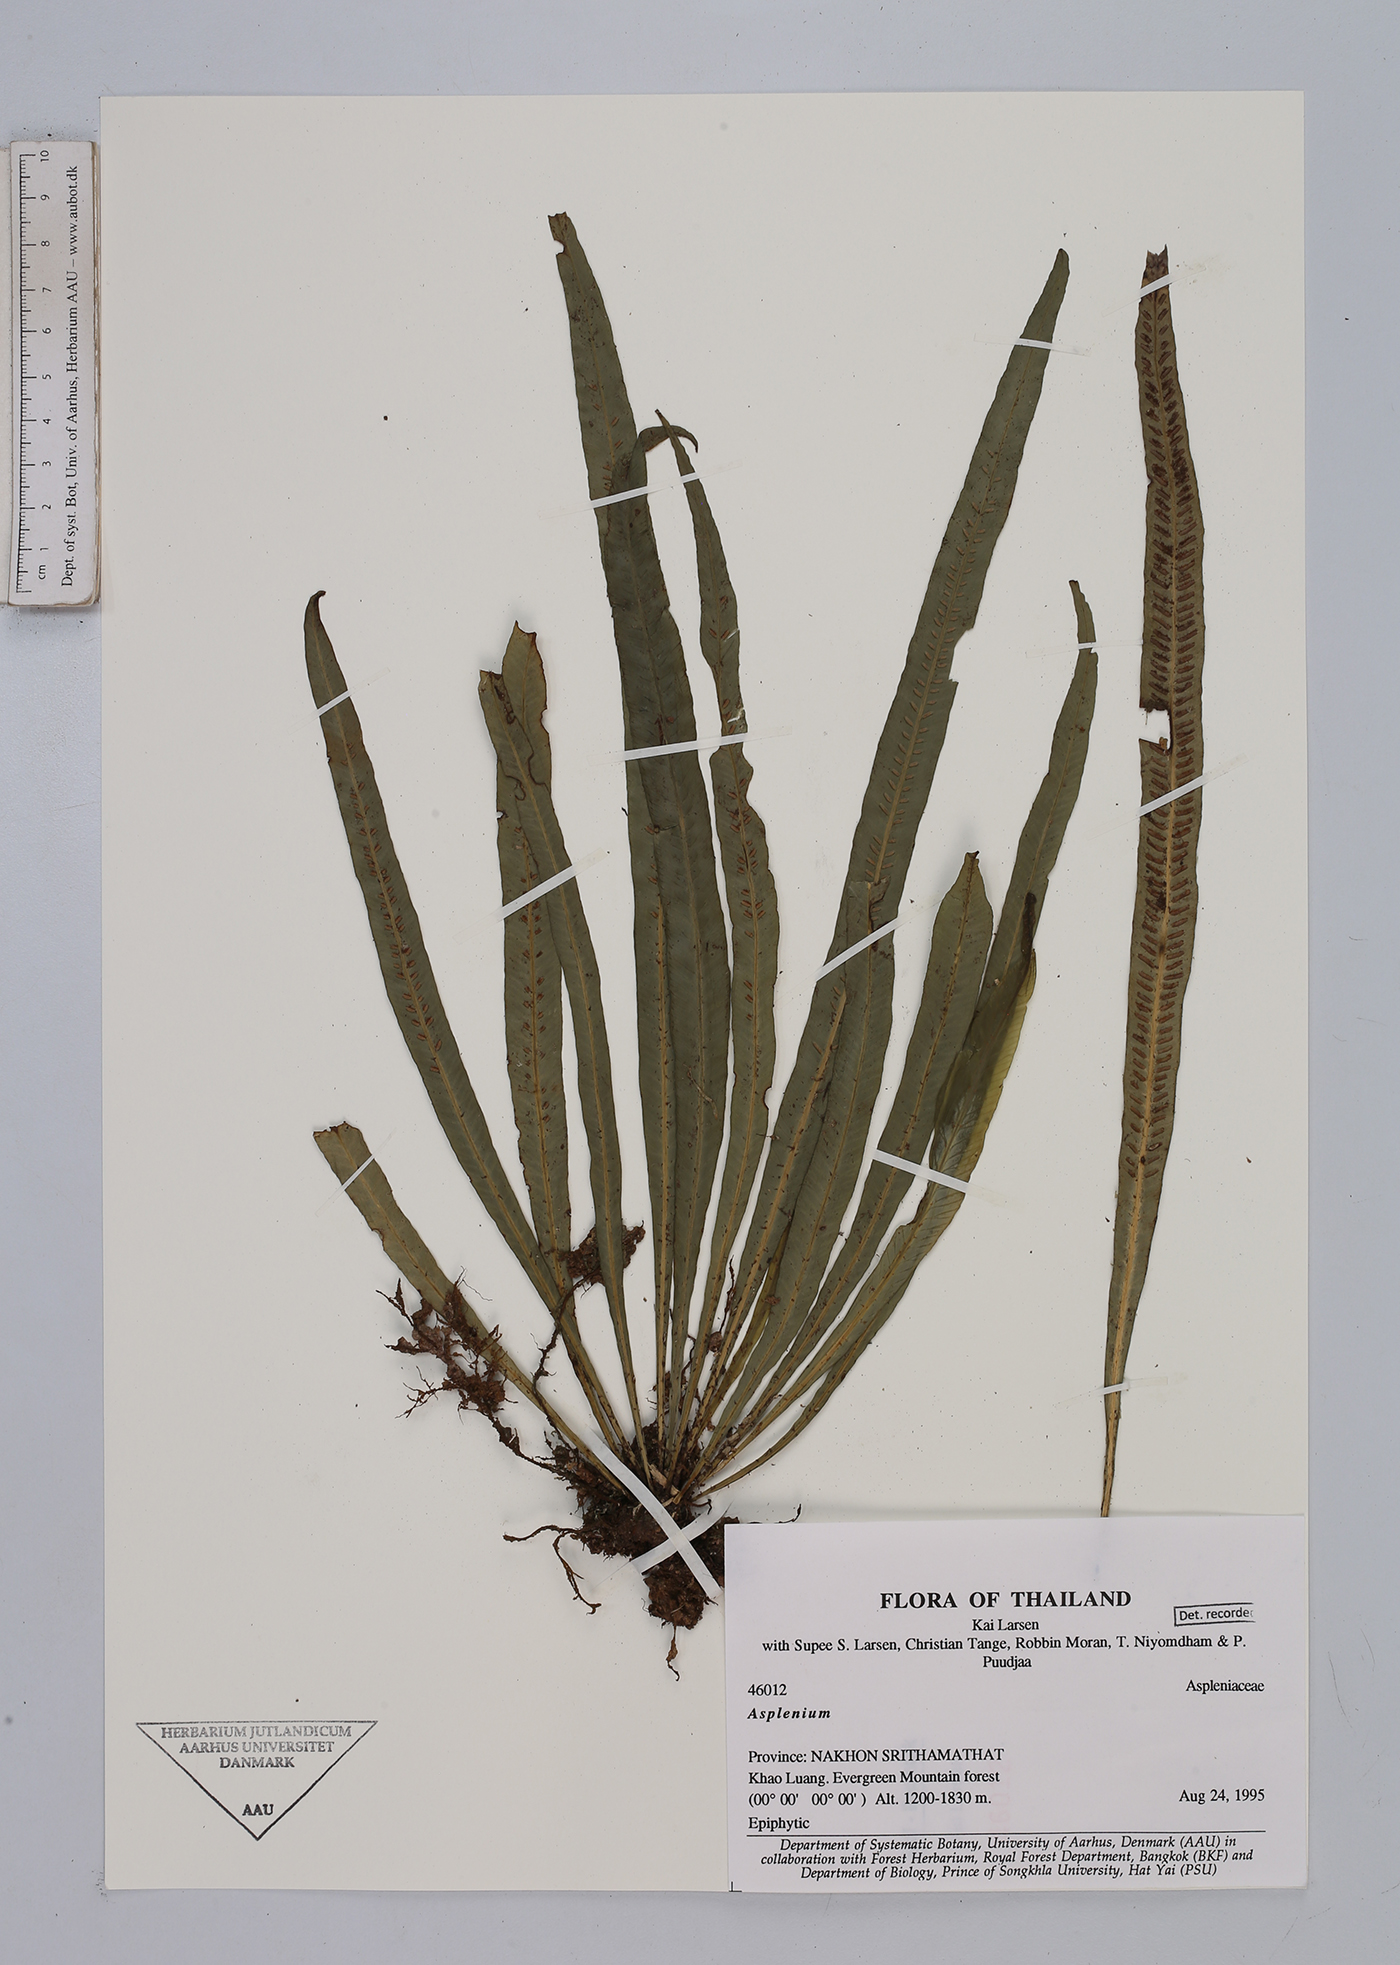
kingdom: Plantae
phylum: Tracheophyta
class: Polypodiopsida
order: Polypodiales
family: Aspleniaceae
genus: Asplenium
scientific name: Asplenium
